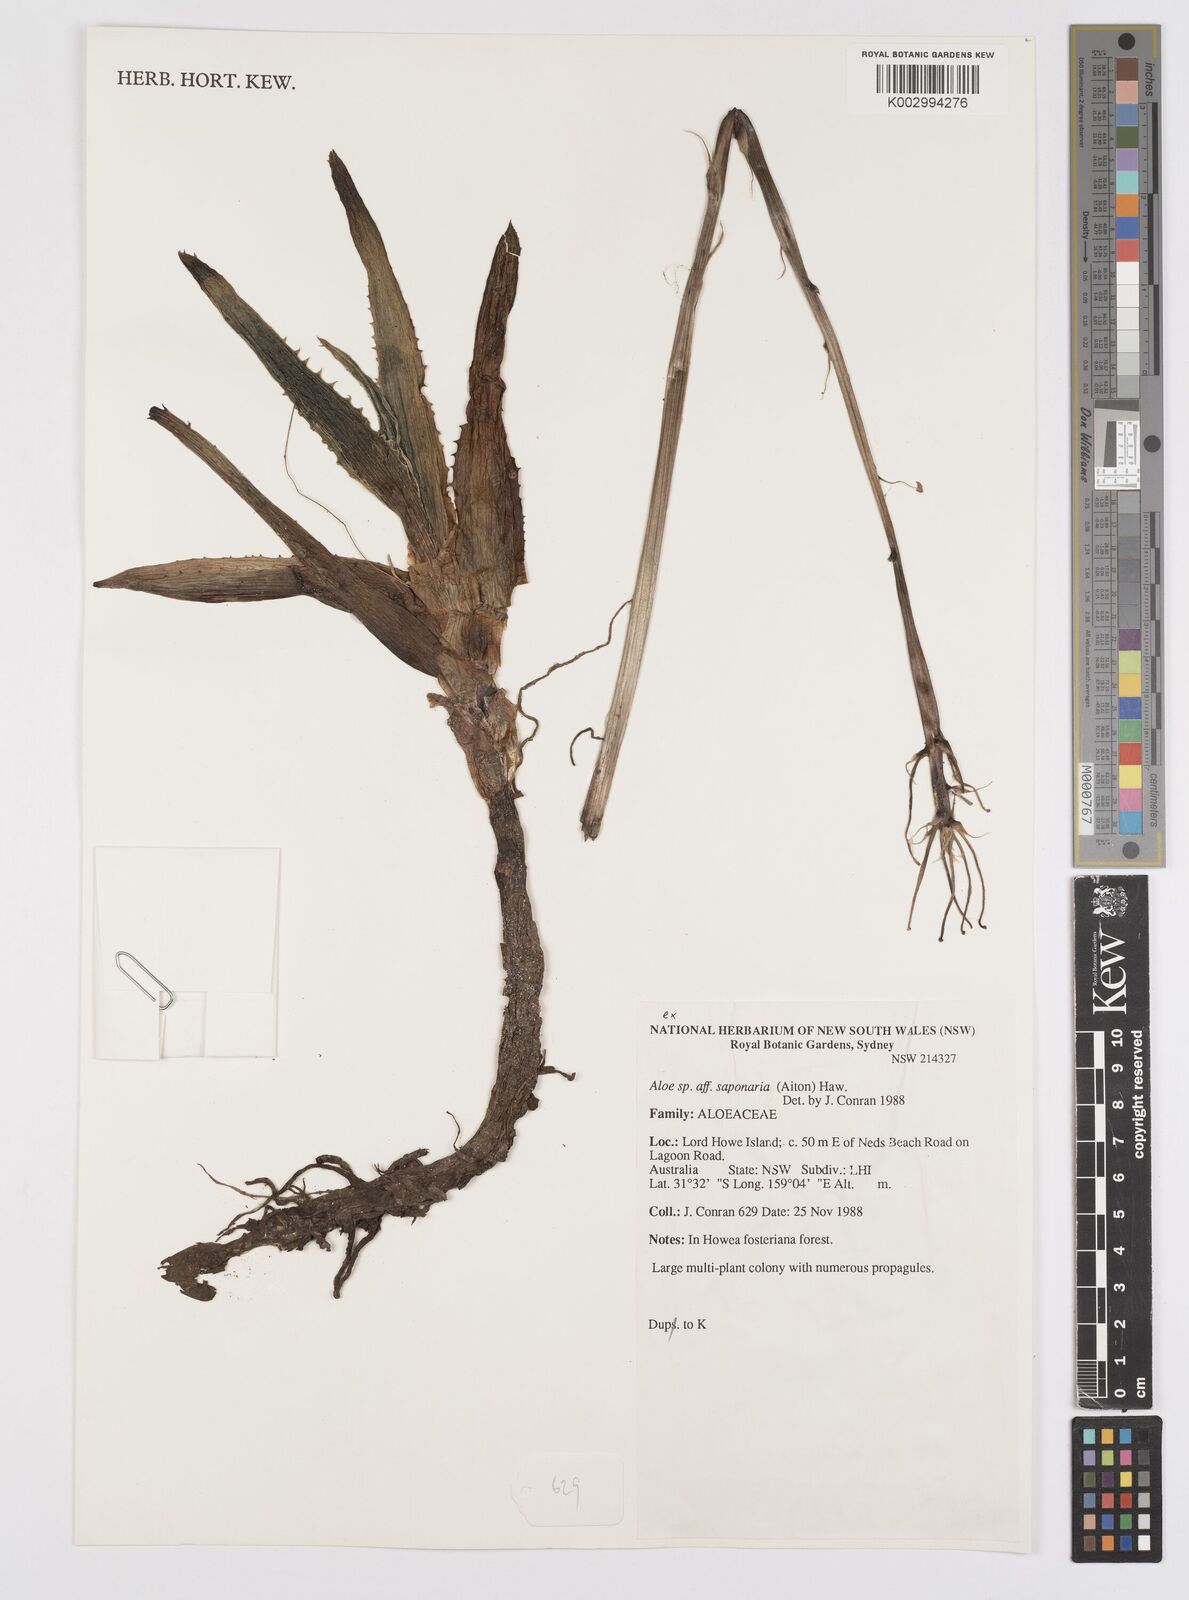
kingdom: Plantae
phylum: Tracheophyta
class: Liliopsida
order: Asparagales
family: Asphodelaceae
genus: Aloe
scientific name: Aloe microstigma
